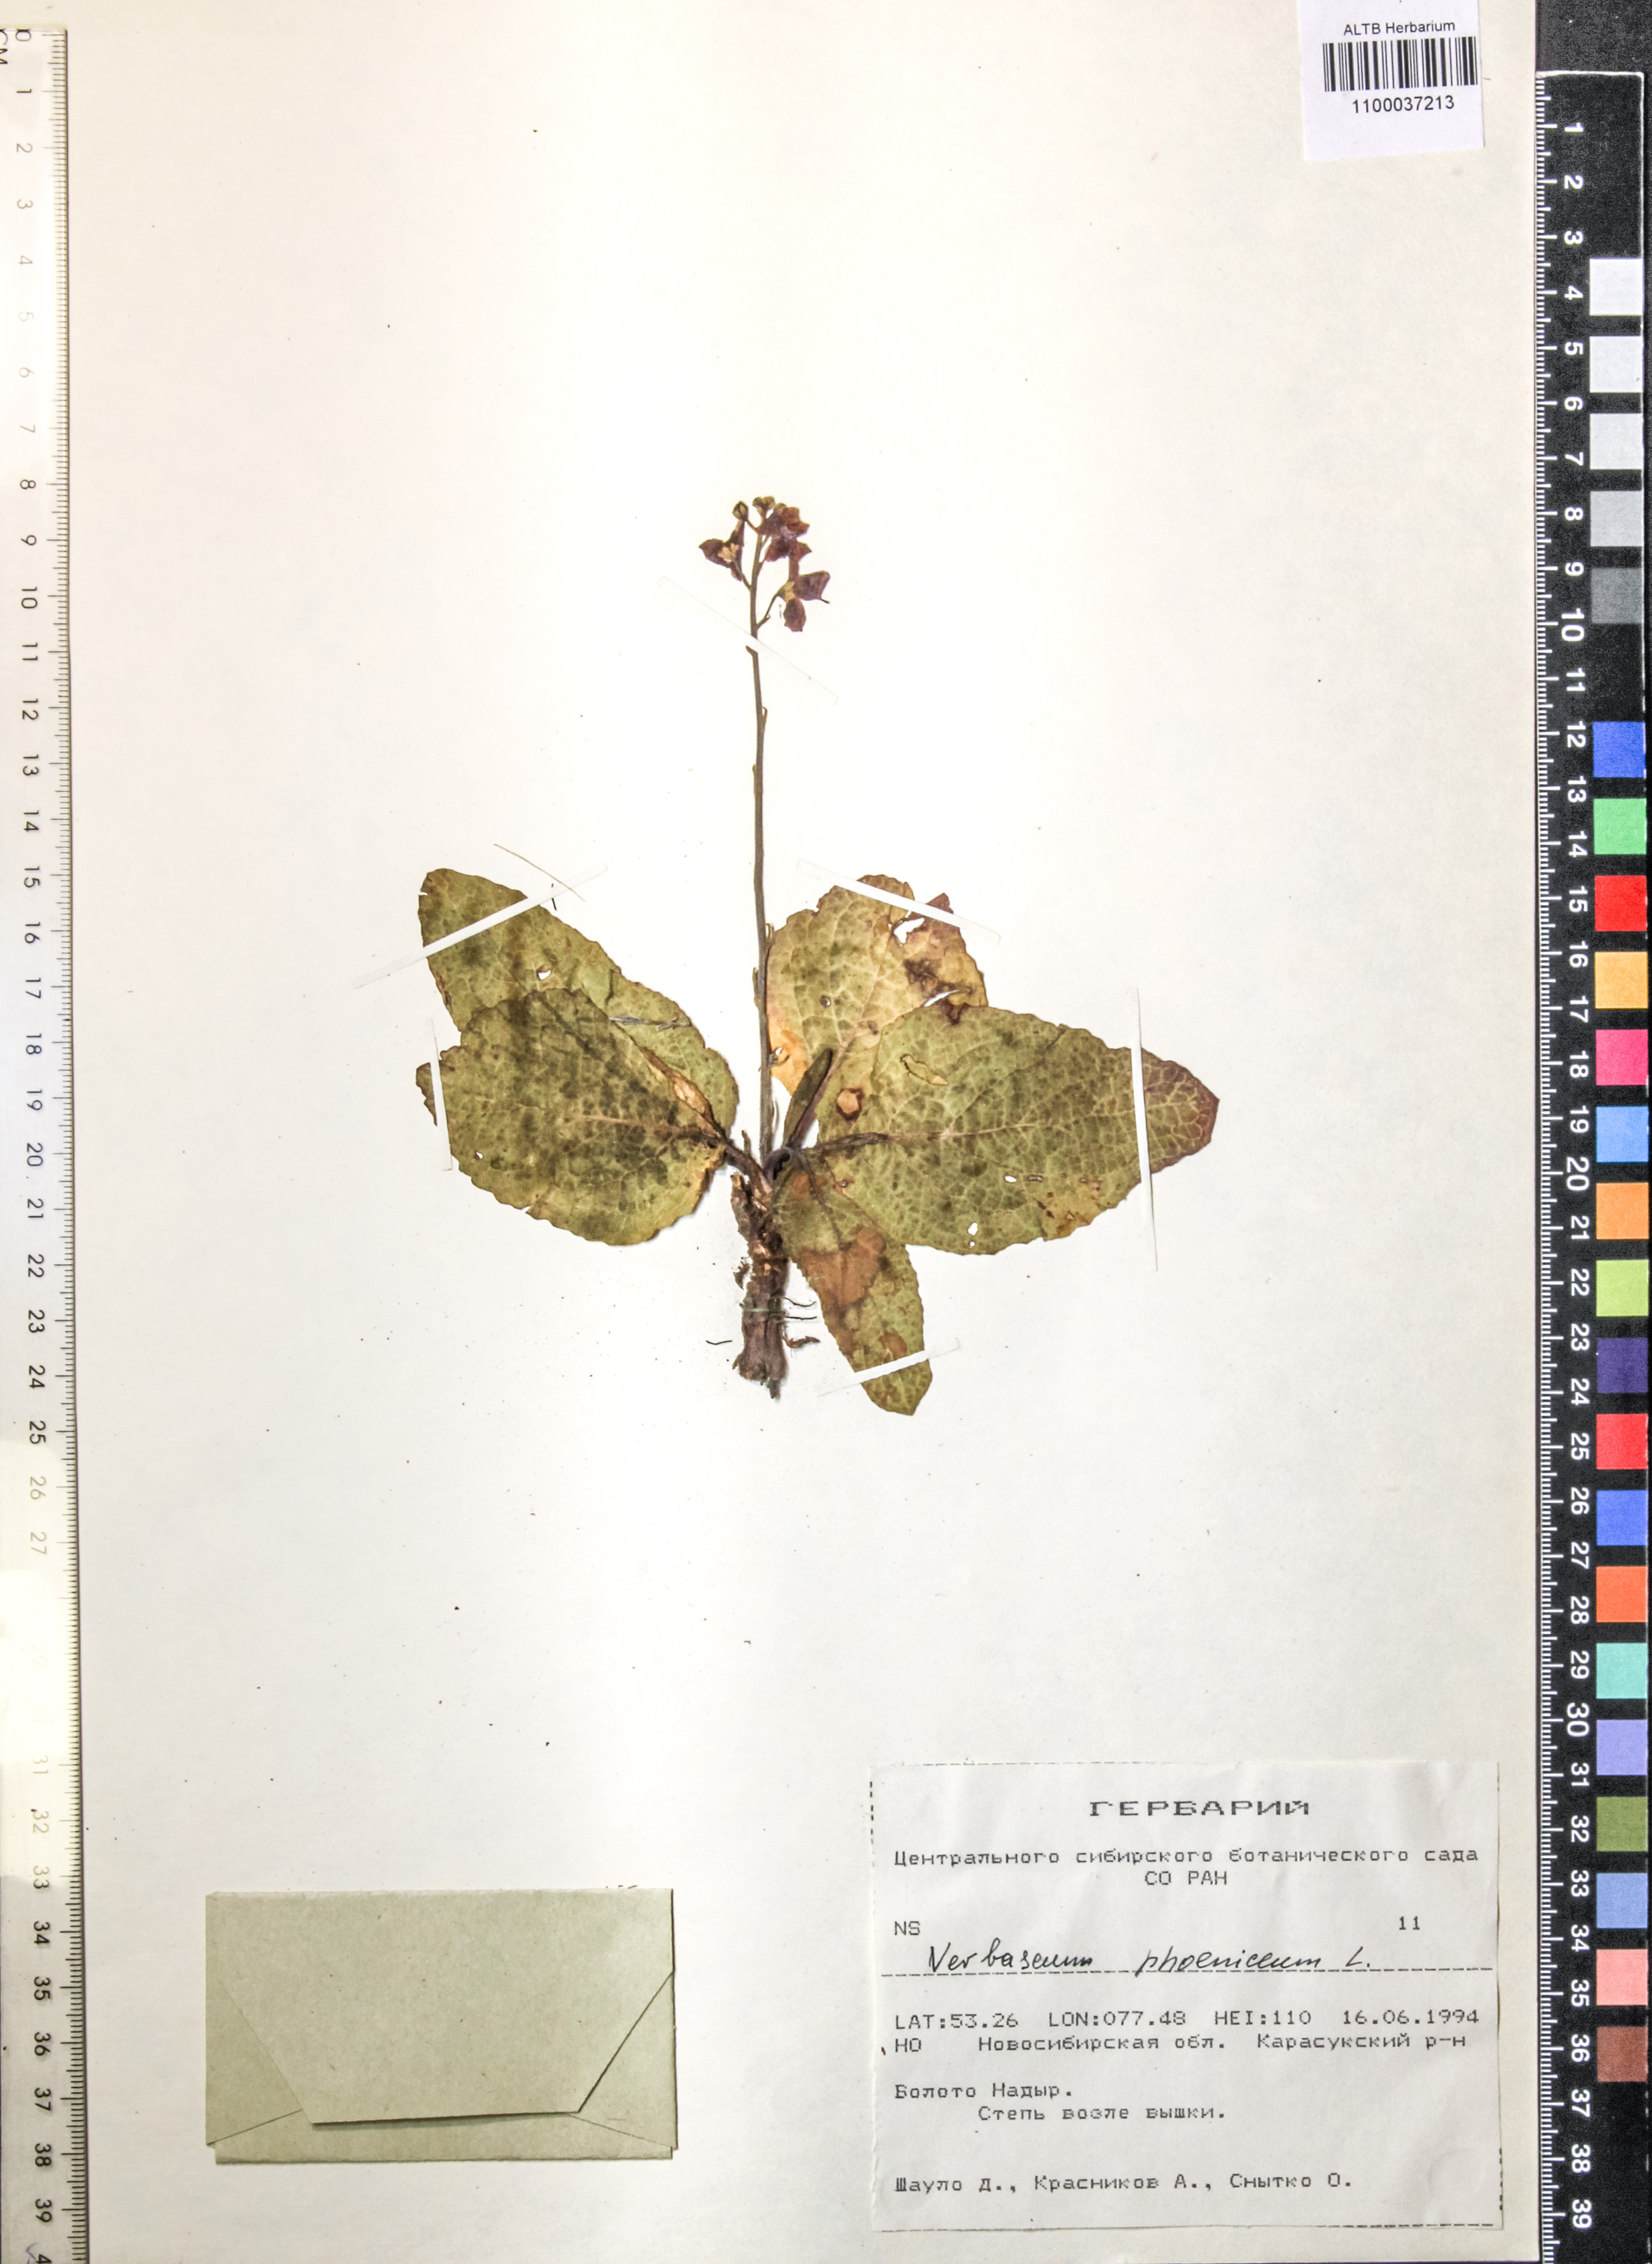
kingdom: Plantae
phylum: Tracheophyta
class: Magnoliopsida
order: Lamiales
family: Scrophulariaceae
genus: Verbascum
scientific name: Verbascum phoeniceum
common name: Purple mullein
